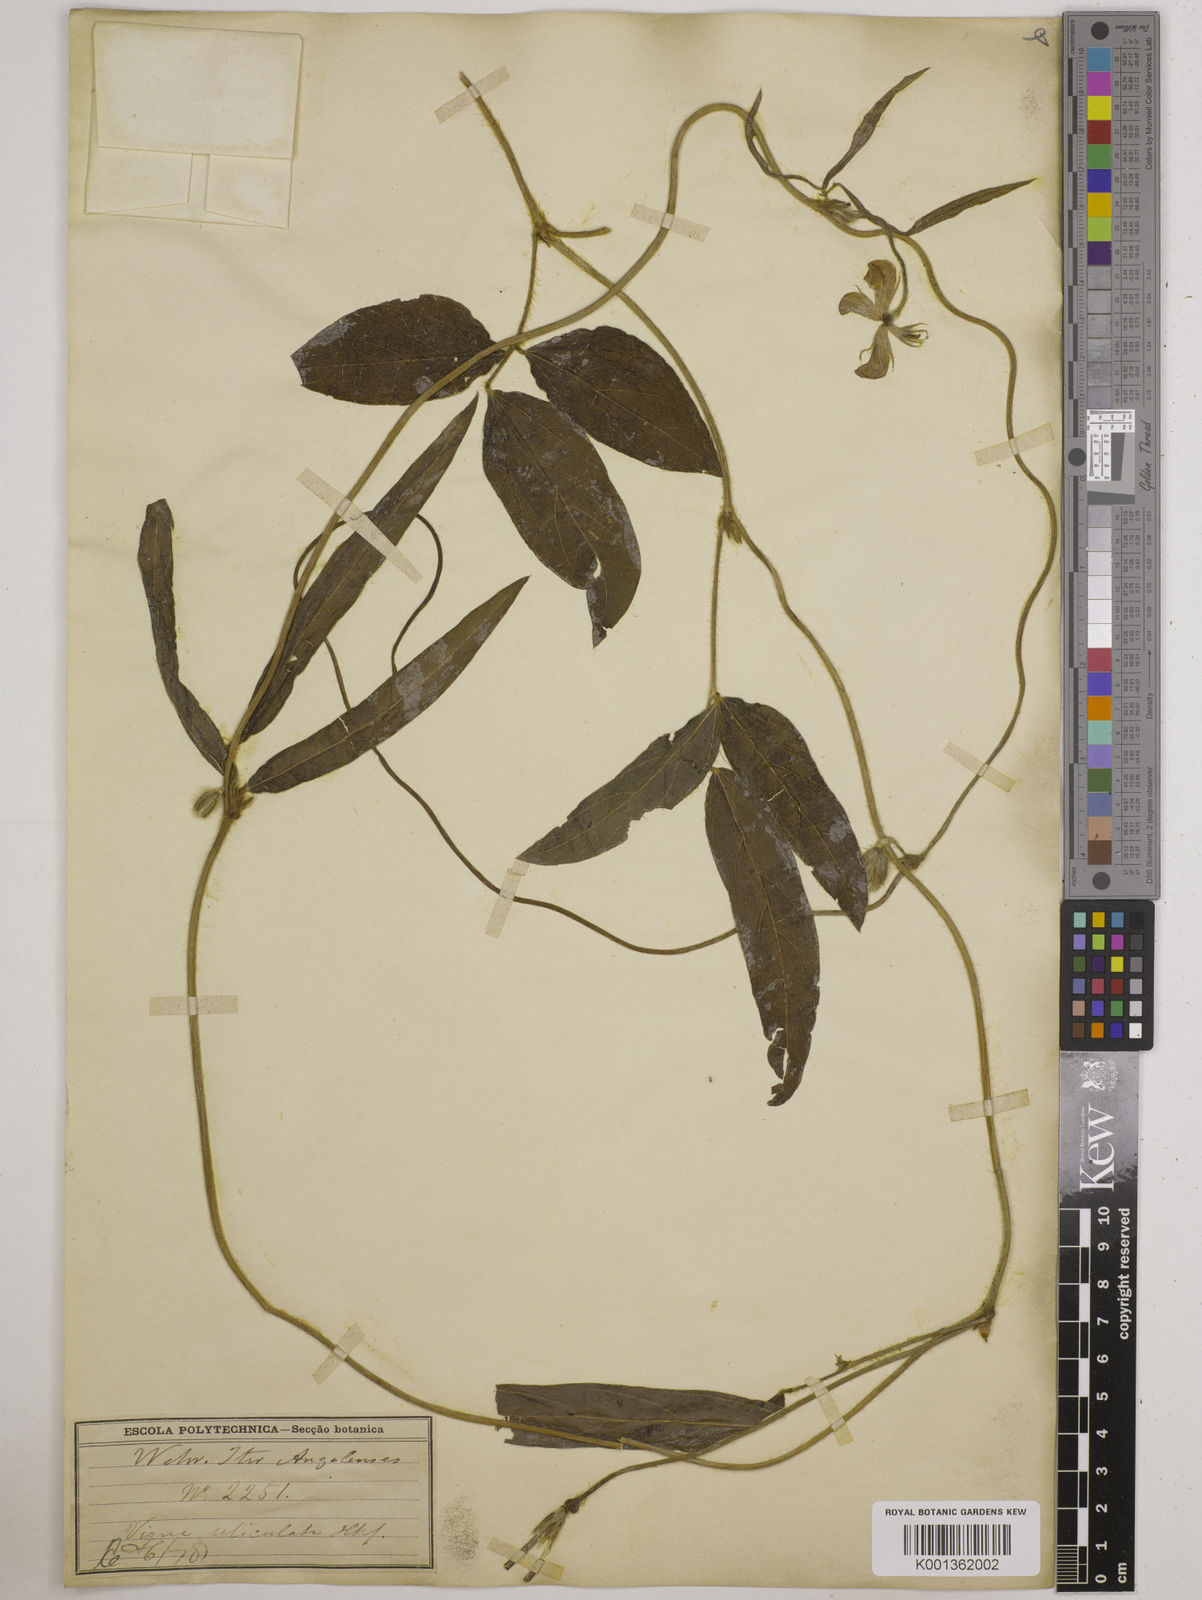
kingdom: Plantae
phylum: Tracheophyta
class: Magnoliopsida
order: Fabales
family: Fabaceae
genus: Vigna
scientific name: Vigna reticulata
